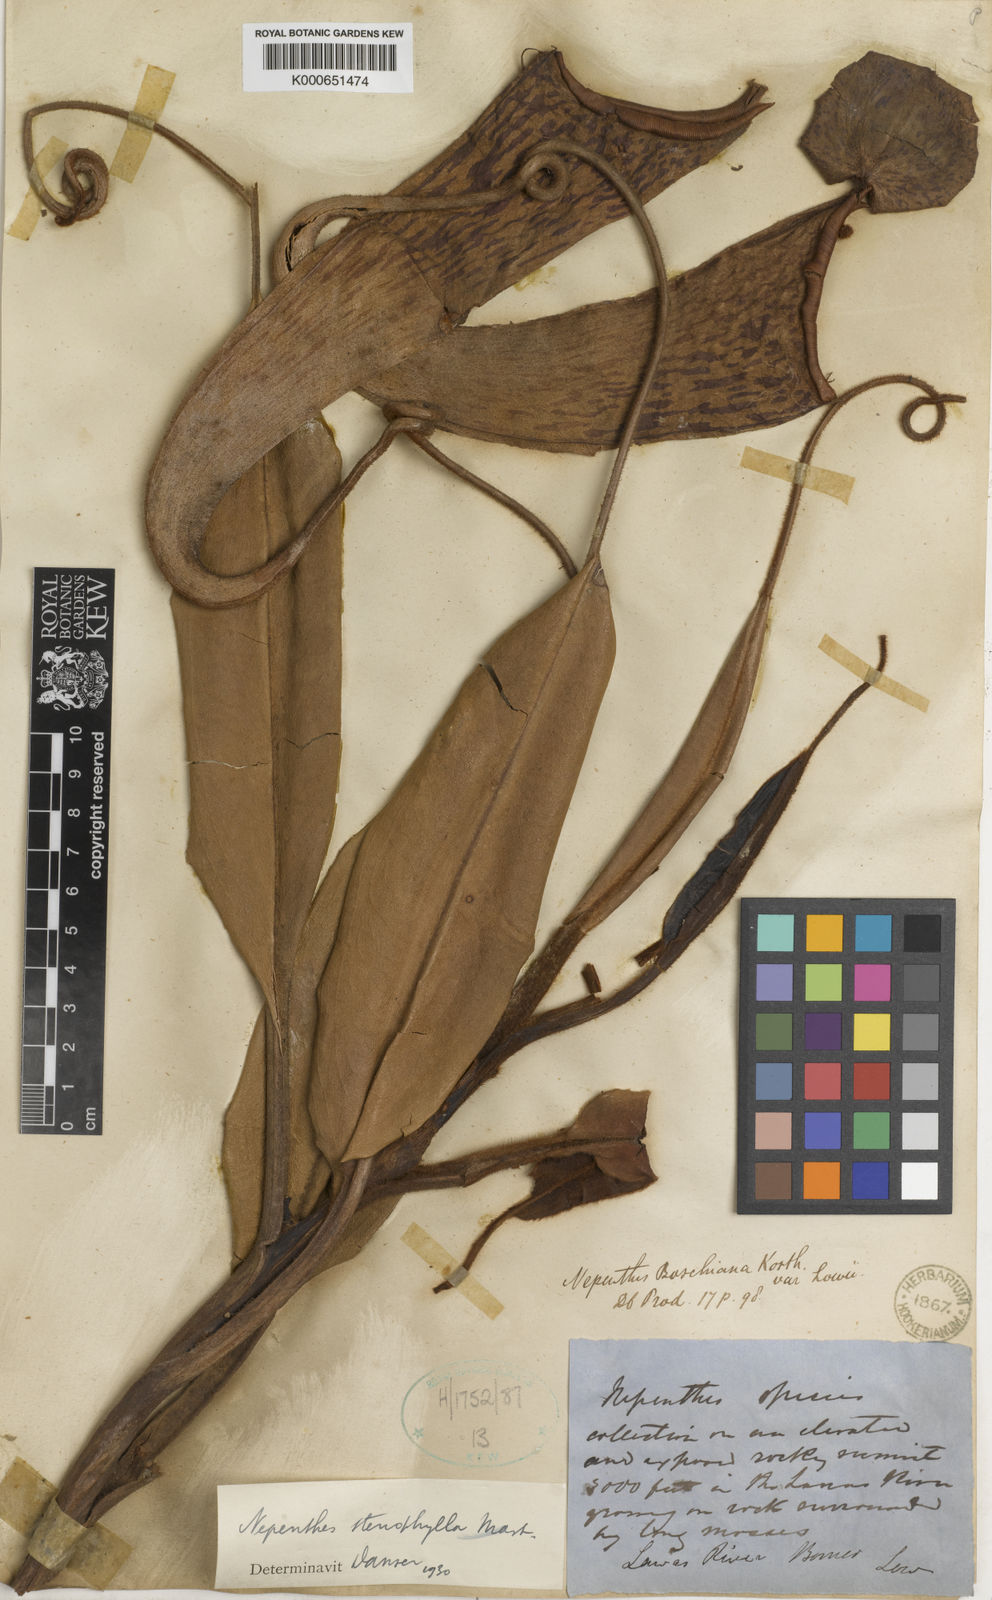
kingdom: Plantae
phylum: Tracheophyta
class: Magnoliopsida
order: Caryophyllales
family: Nepenthaceae
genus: Nepenthes
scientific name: Nepenthes stenophylla
